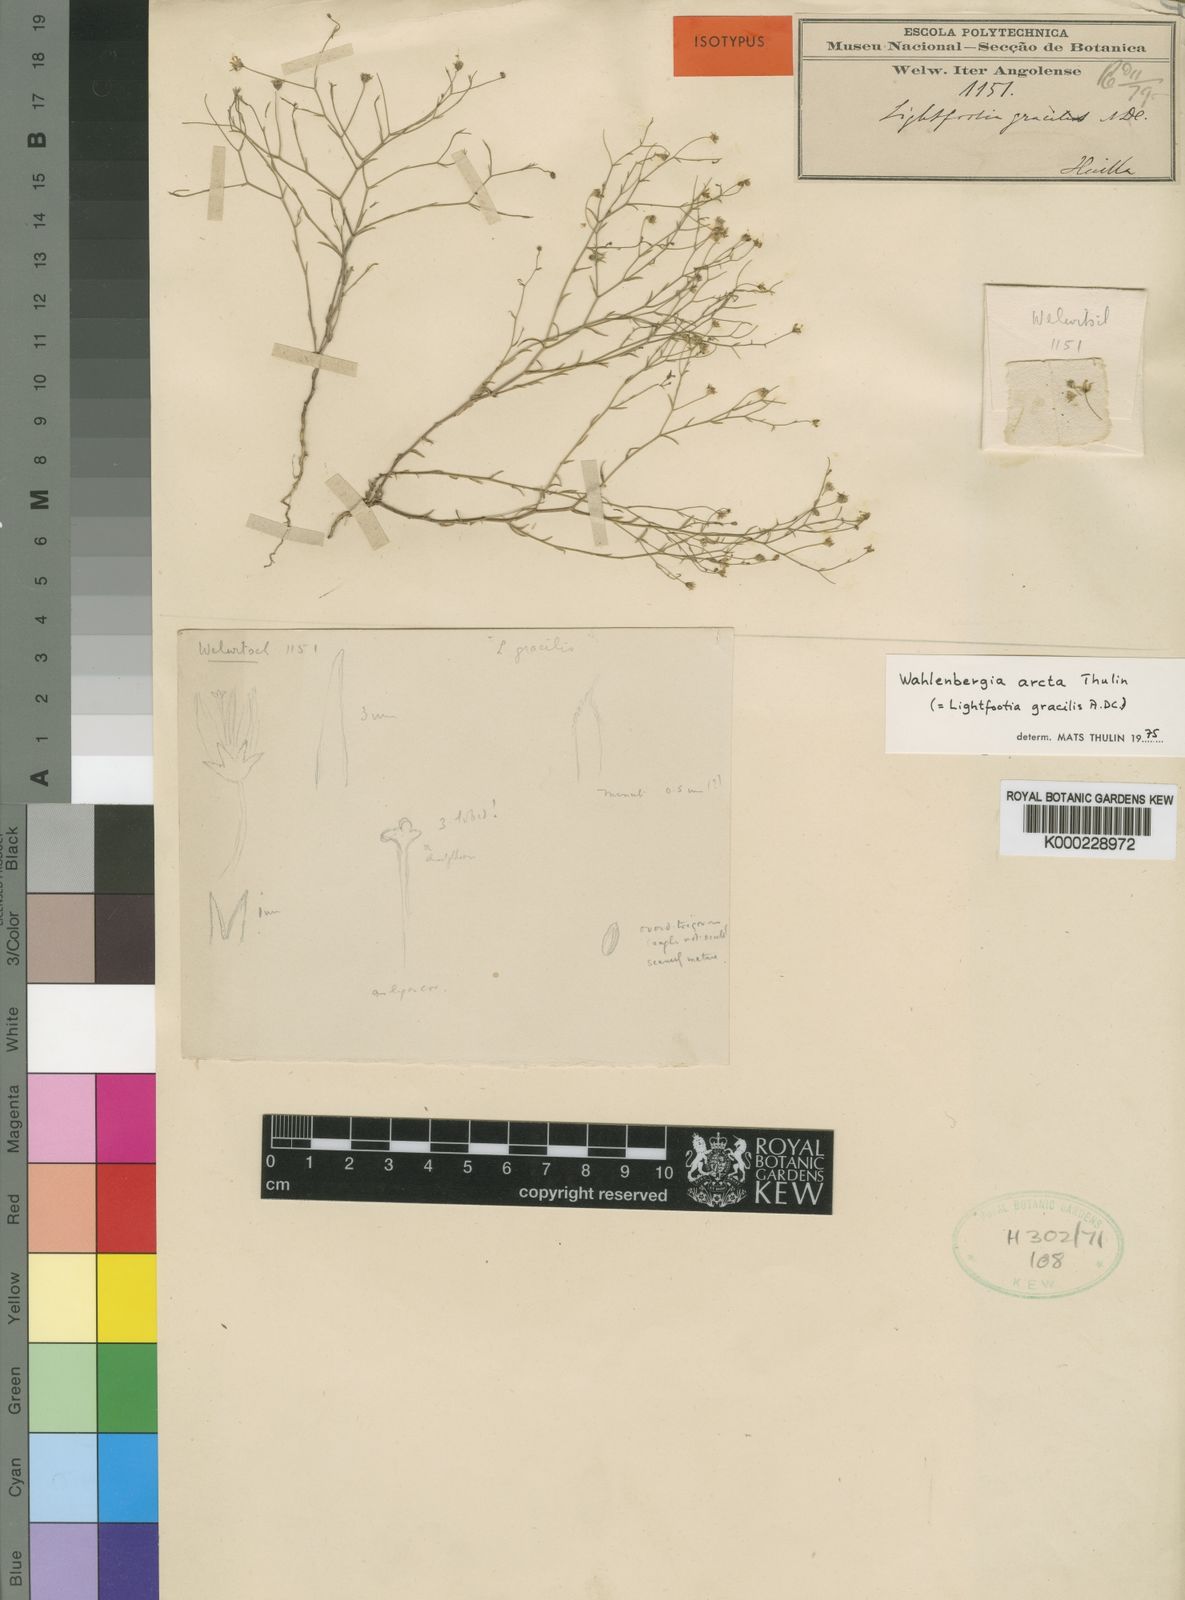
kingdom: Plantae
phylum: Tracheophyta
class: Magnoliopsida
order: Asterales
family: Campanulaceae
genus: Wahlenbergia
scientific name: Wahlenbergia arcta
